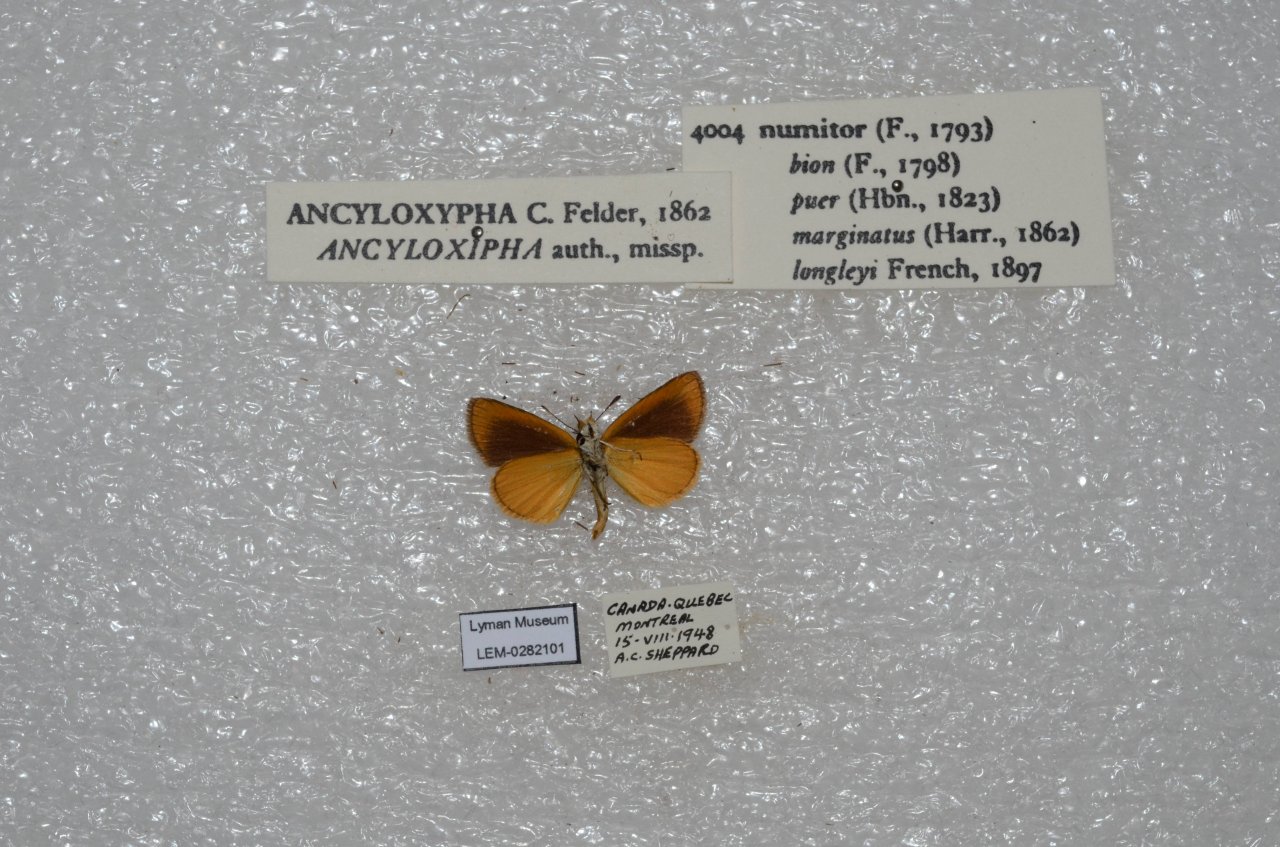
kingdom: Animalia
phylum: Arthropoda
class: Insecta
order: Lepidoptera
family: Hesperiidae
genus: Ancyloxypha
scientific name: Ancyloxypha numitor
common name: Least Skipper
